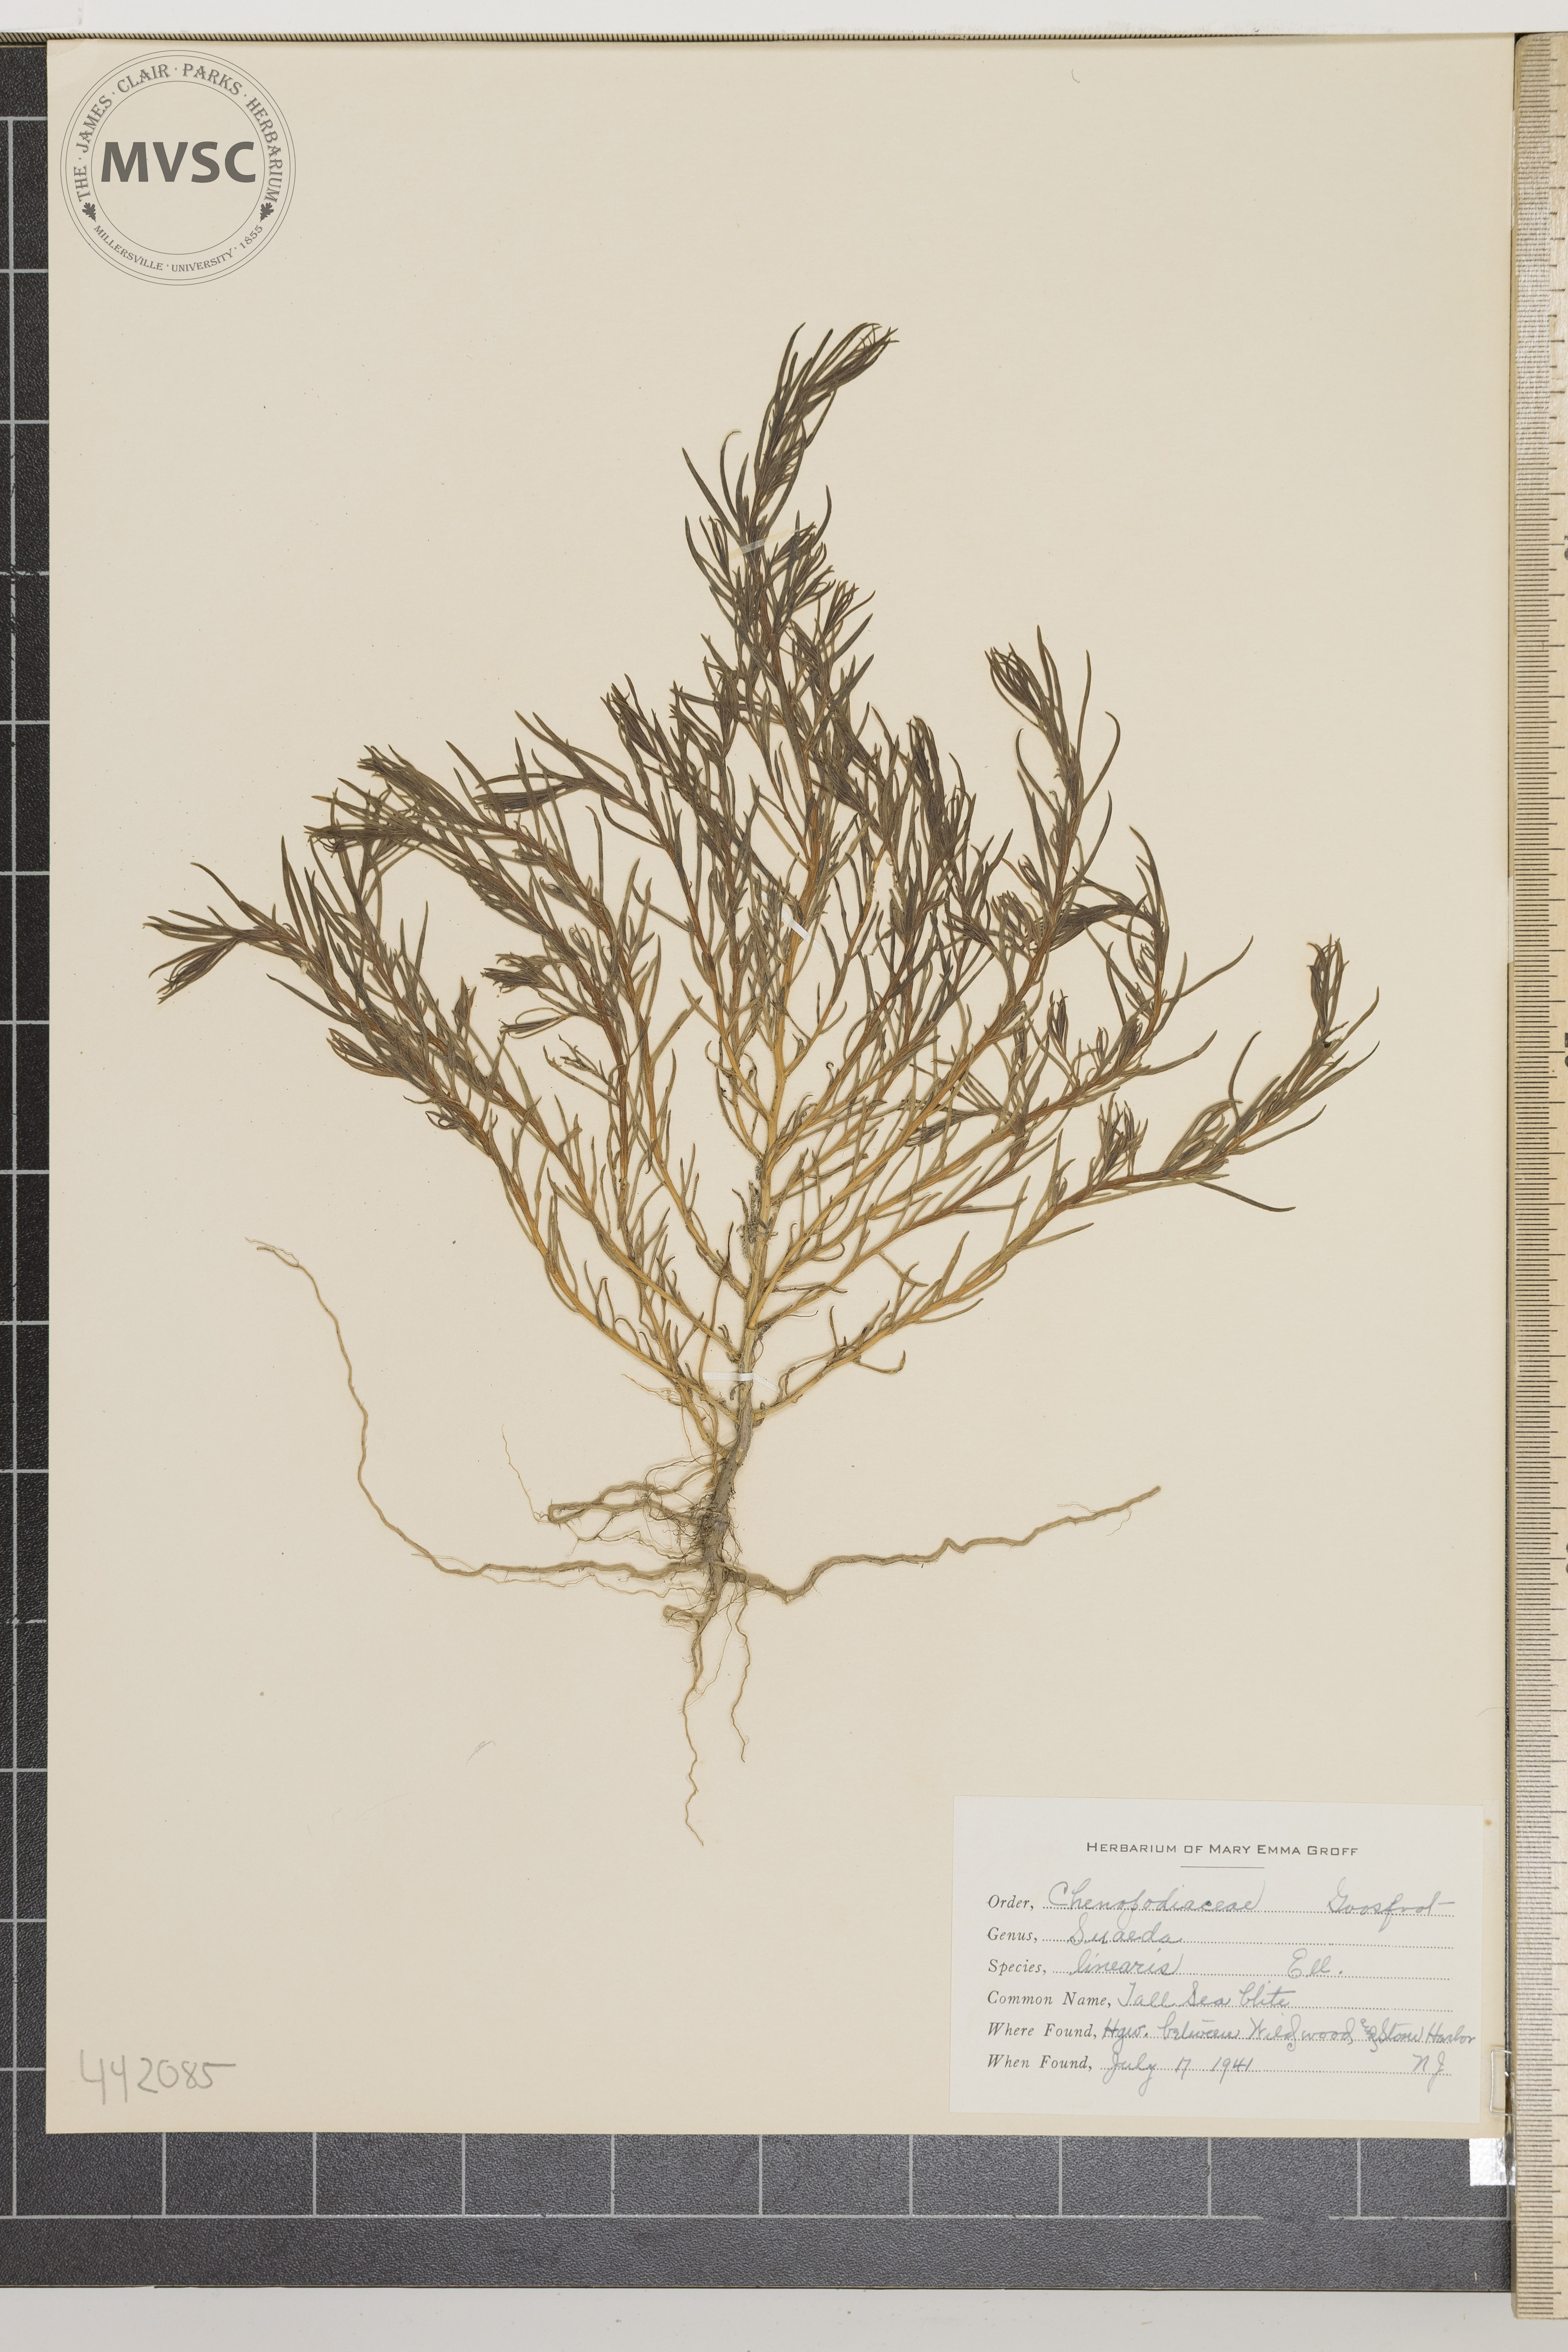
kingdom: Plantae
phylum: Tracheophyta
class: Magnoliopsida
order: Caryophyllales
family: Amaranthaceae
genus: Suaeda
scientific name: Suaeda linearis
